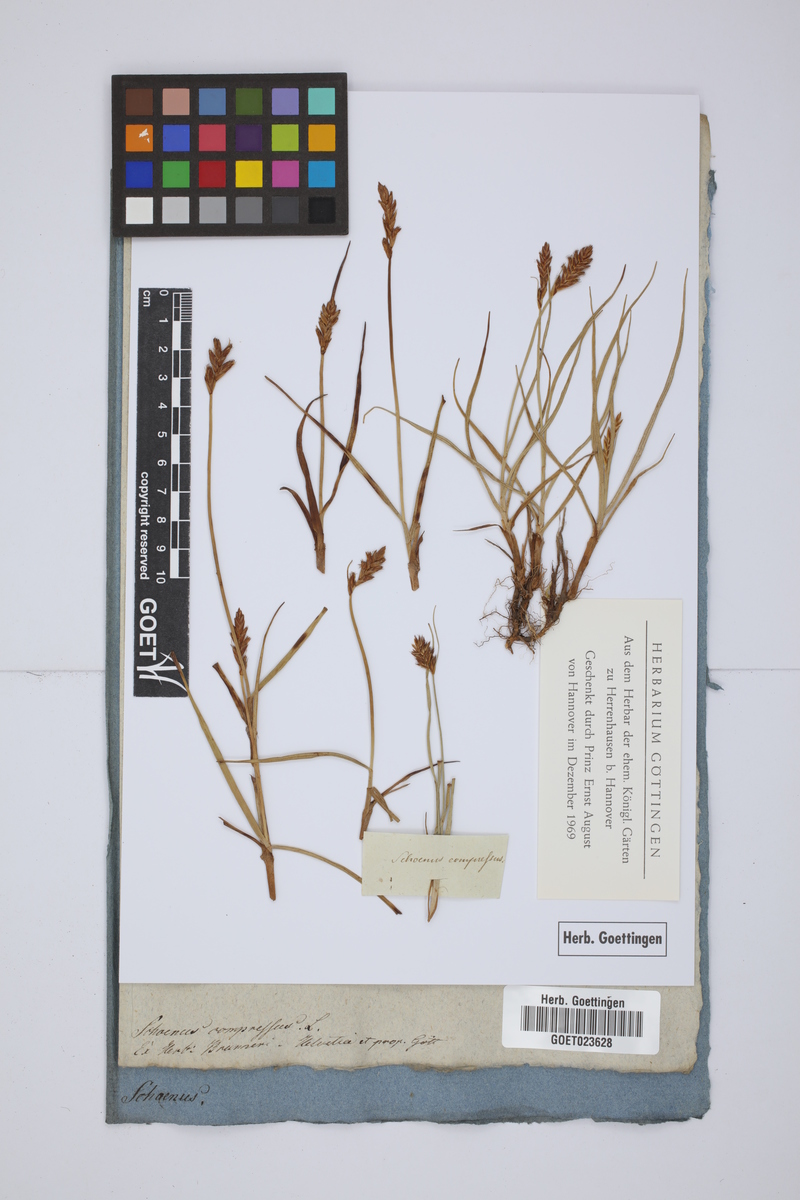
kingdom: Plantae
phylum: Tracheophyta
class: Liliopsida
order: Poales
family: Cyperaceae
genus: Blysmus
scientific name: Blysmus compressus
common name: Flat-sedge
